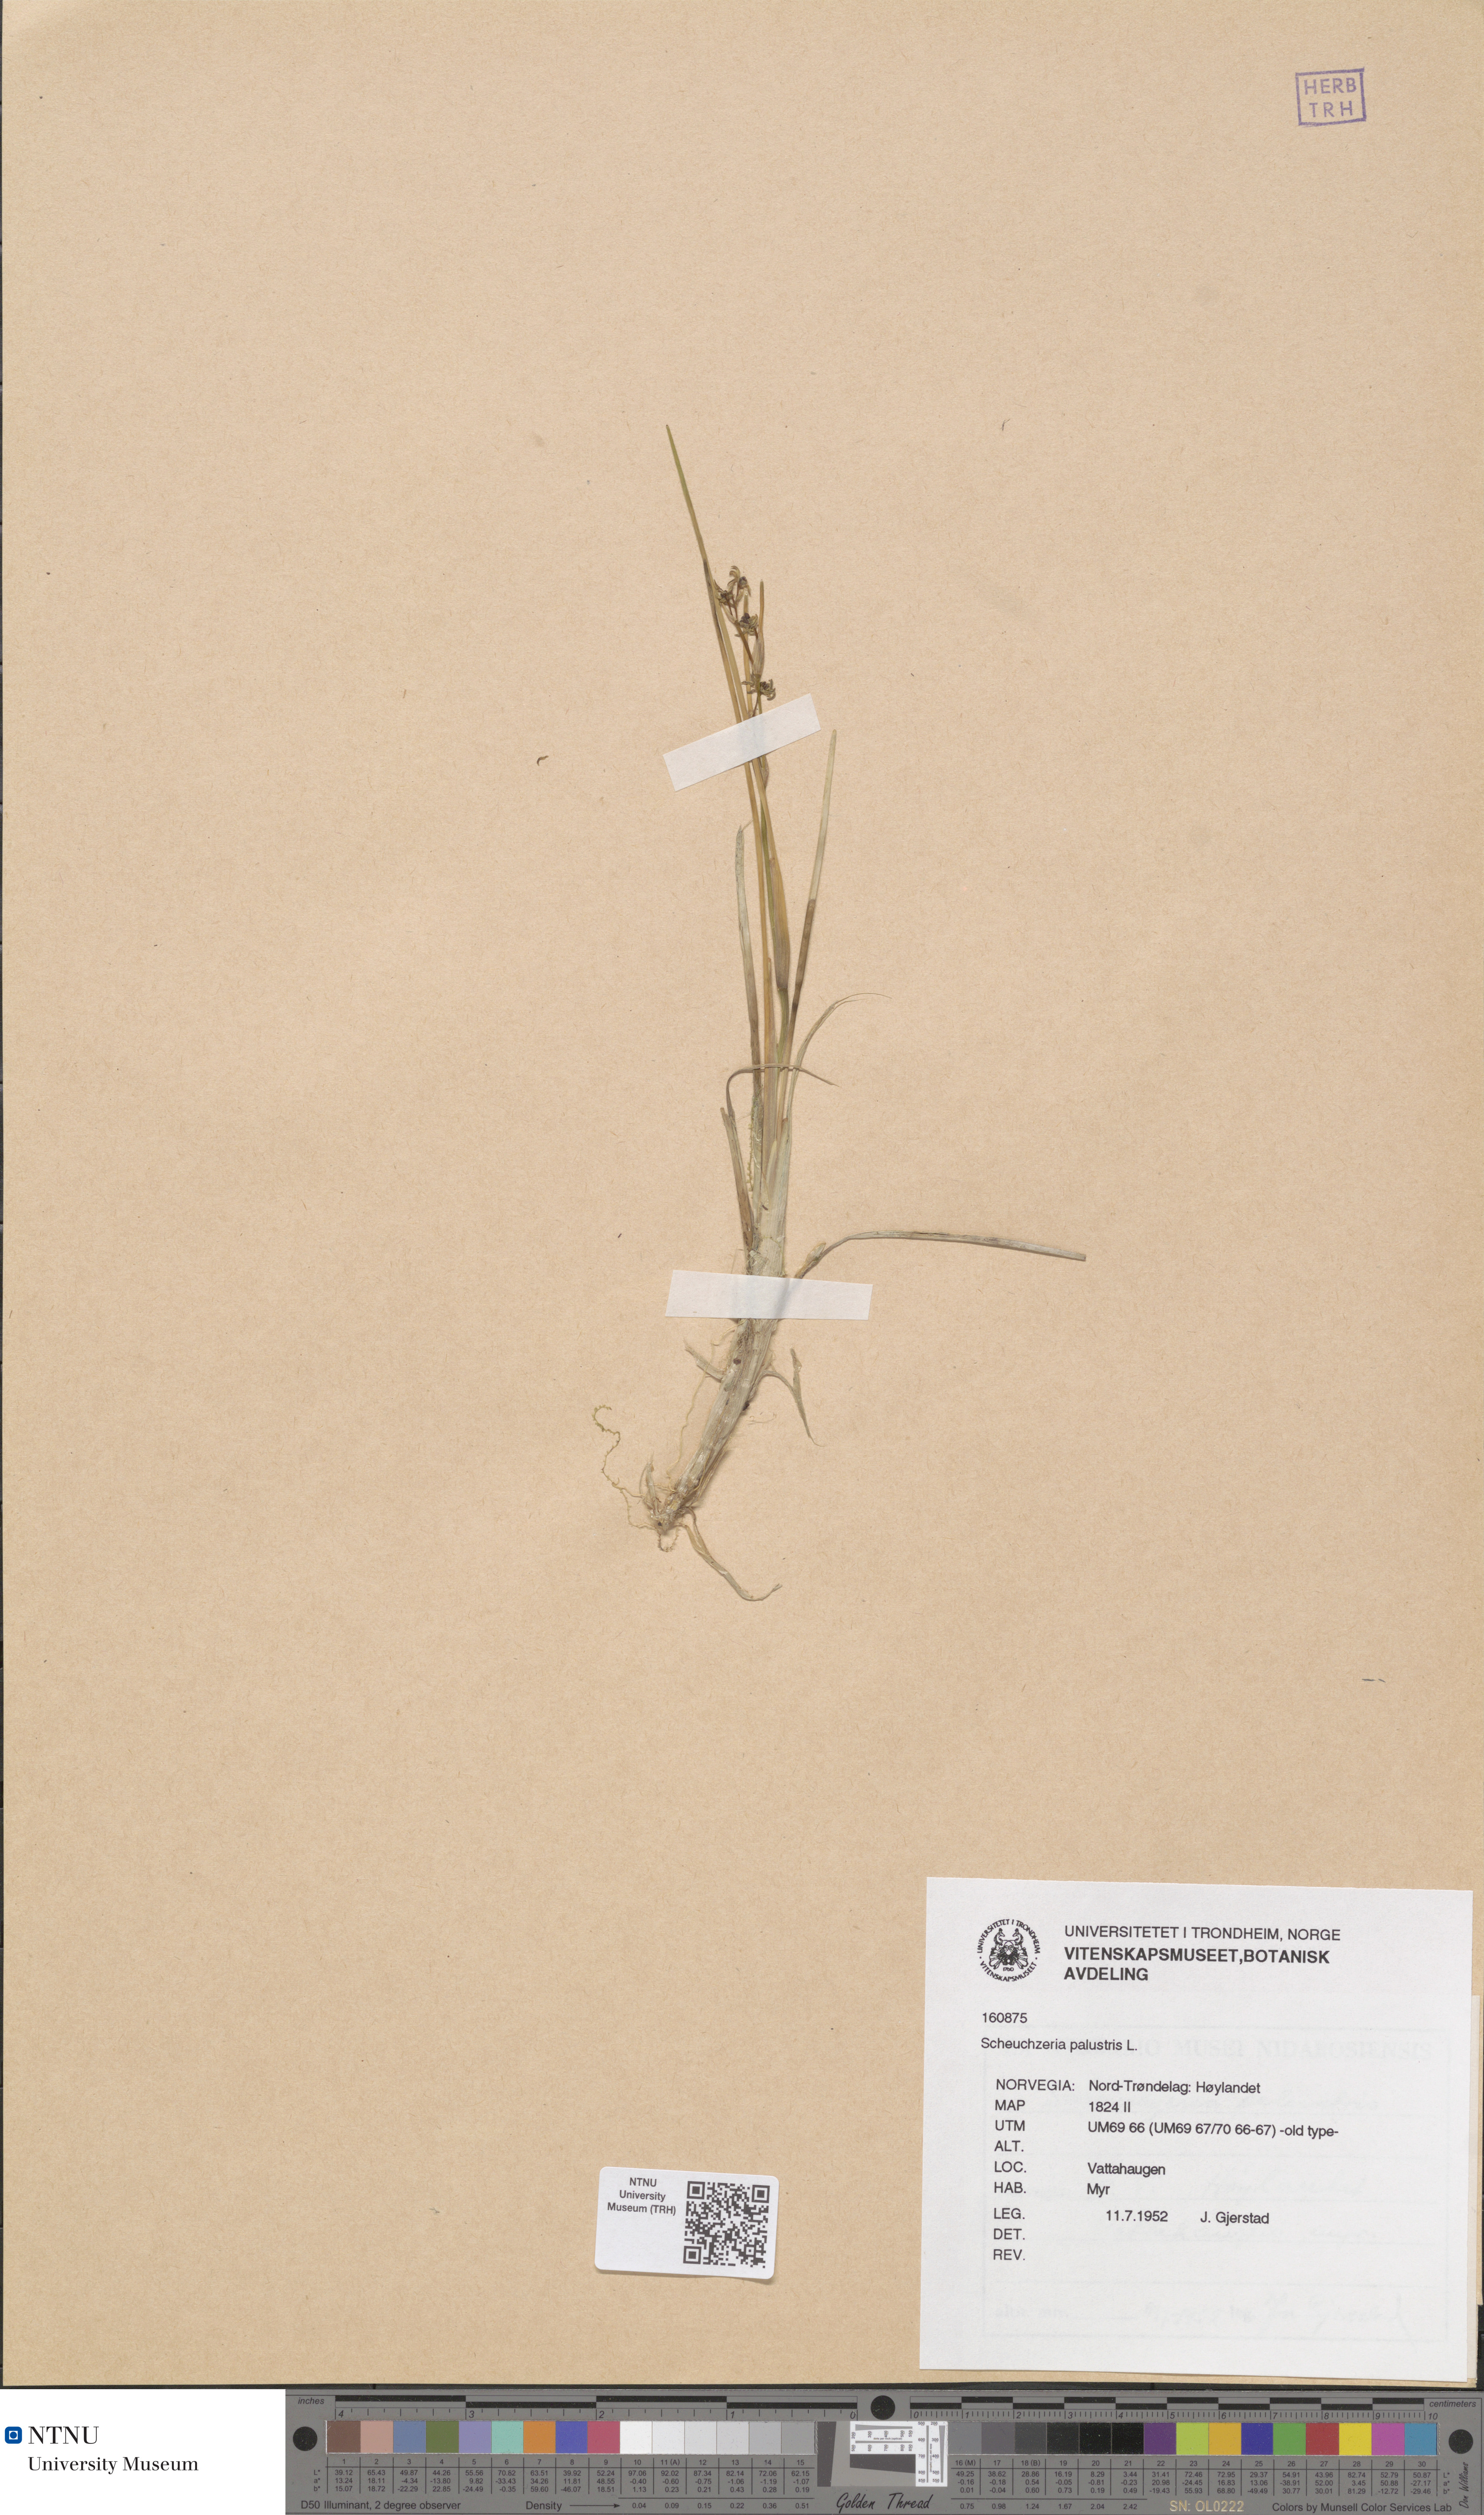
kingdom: Plantae
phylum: Tracheophyta
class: Liliopsida
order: Alismatales
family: Scheuchzeriaceae
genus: Scheuchzeria
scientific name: Scheuchzeria palustris
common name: Rannoch-rush
